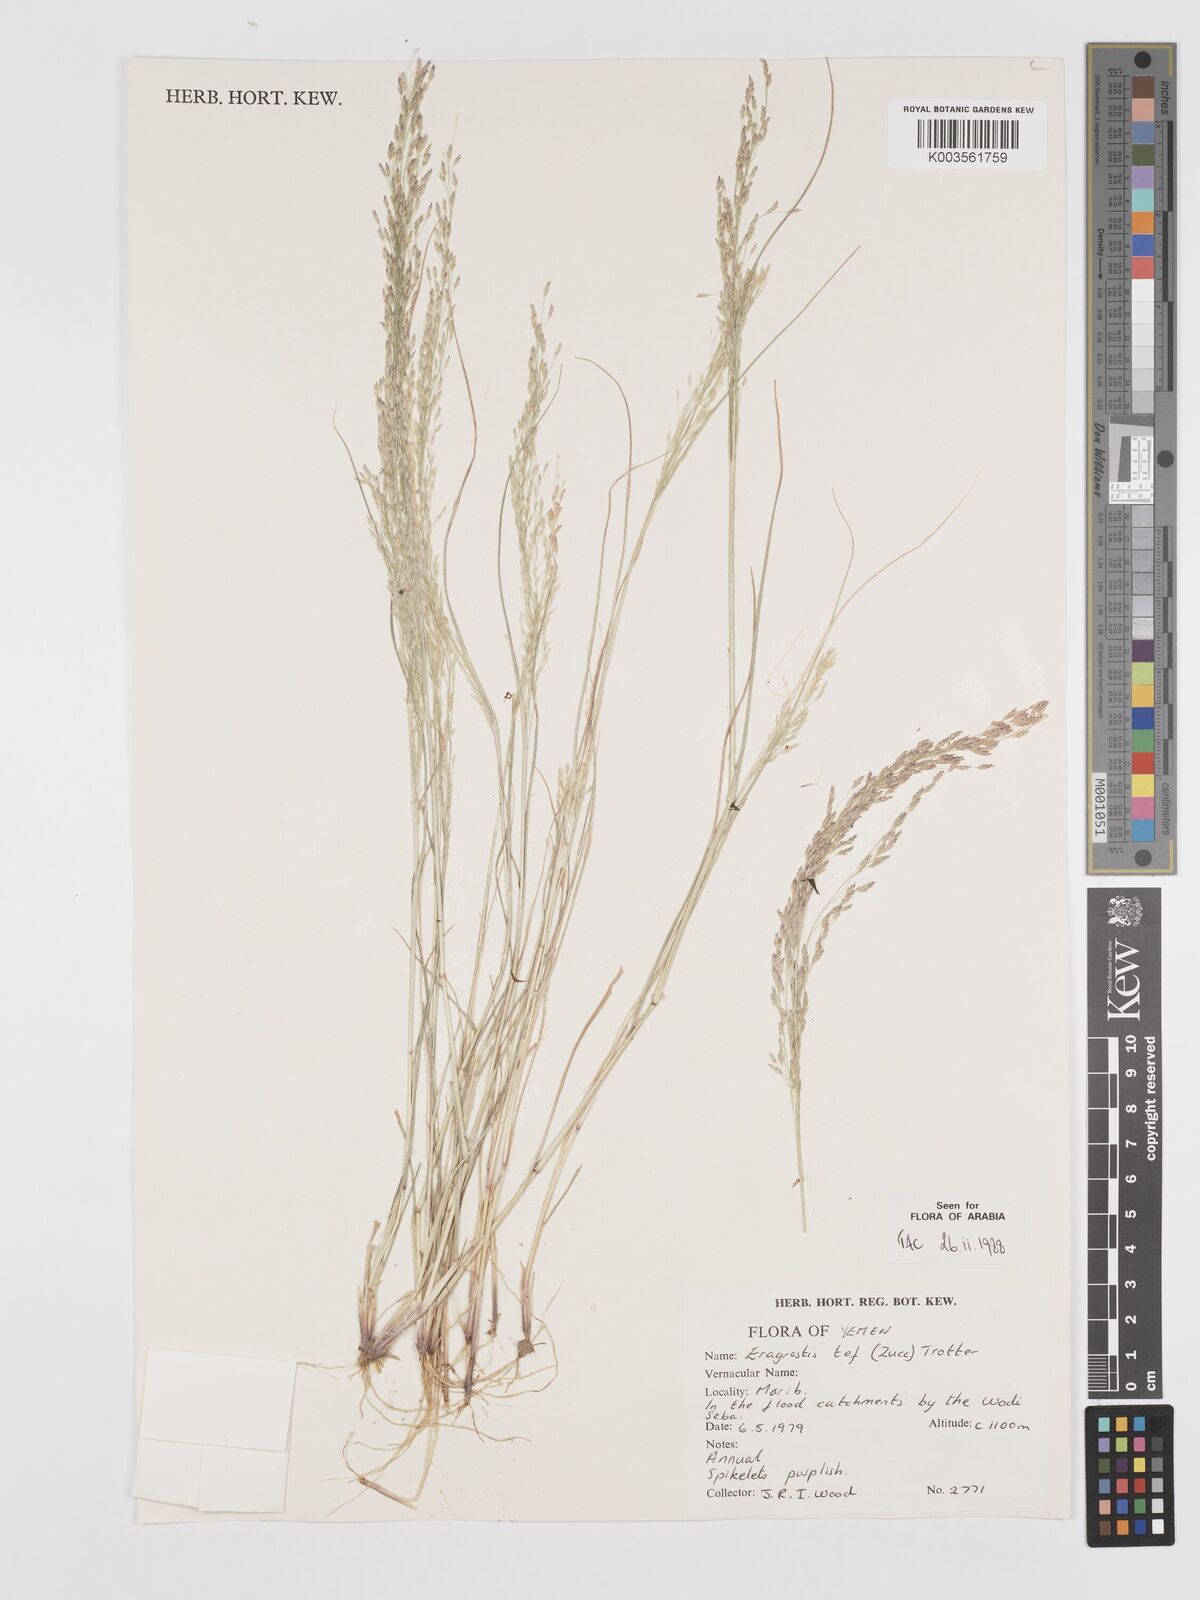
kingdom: Plantae
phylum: Tracheophyta
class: Liliopsida
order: Poales
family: Poaceae
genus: Eragrostis
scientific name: Eragrostis tef
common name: Teff
